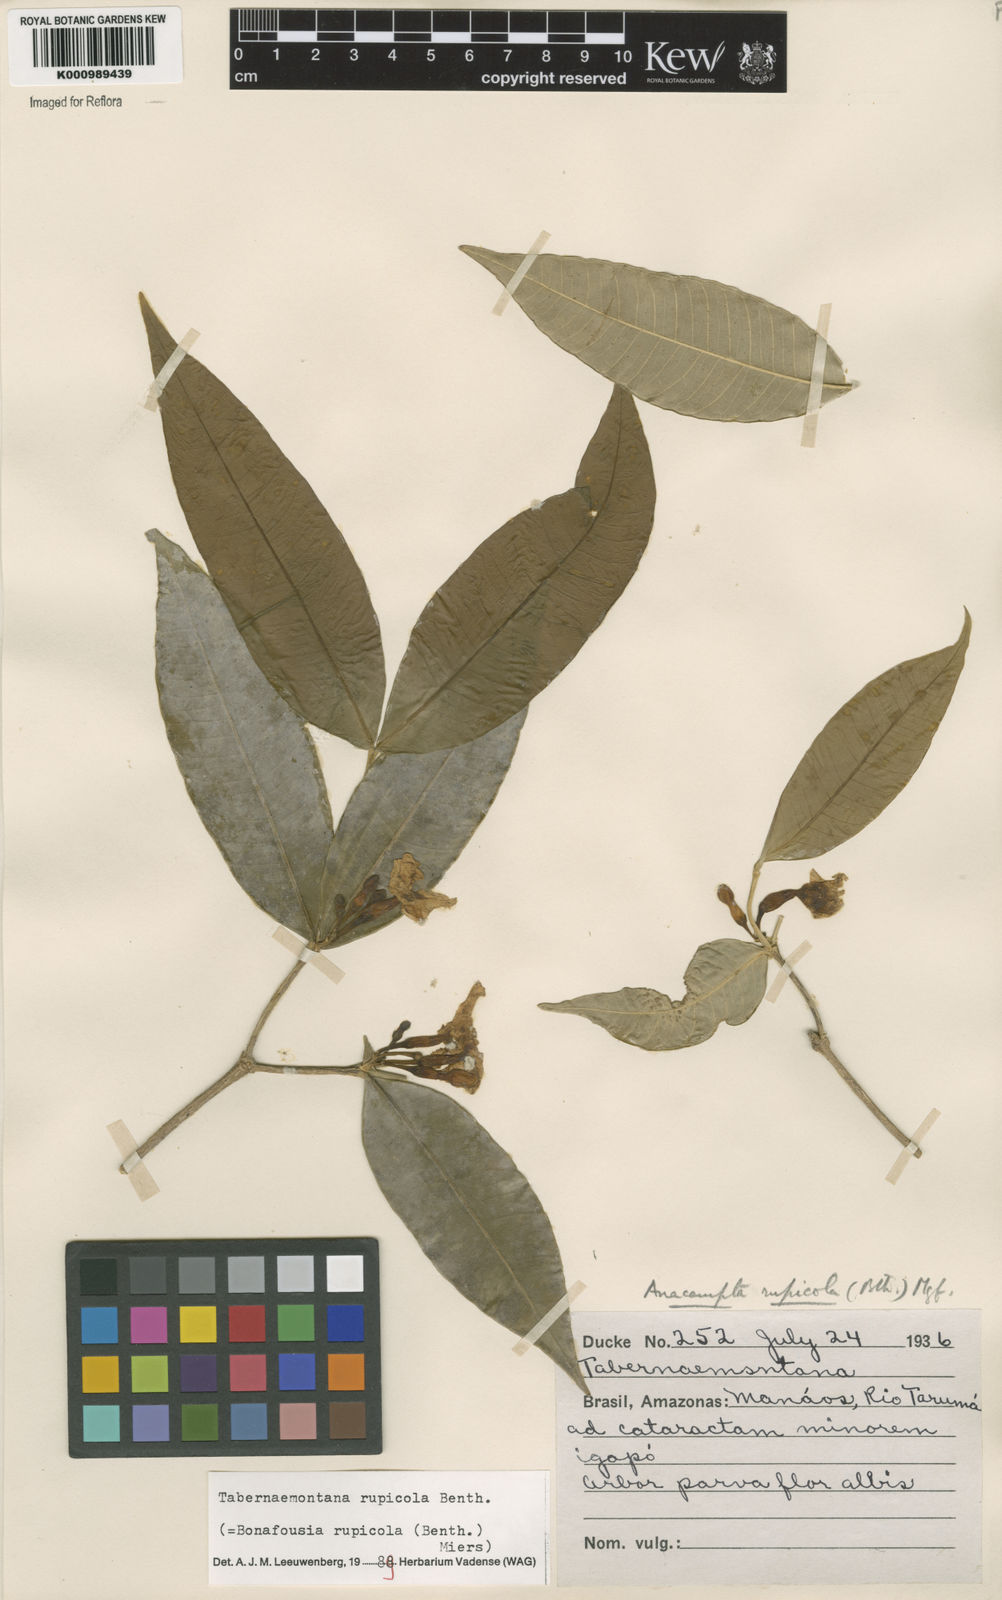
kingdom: Plantae
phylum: Tracheophyta
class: Magnoliopsida
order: Gentianales
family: Apocynaceae
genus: Tabernaemontana
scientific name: Tabernaemontana rupicola
